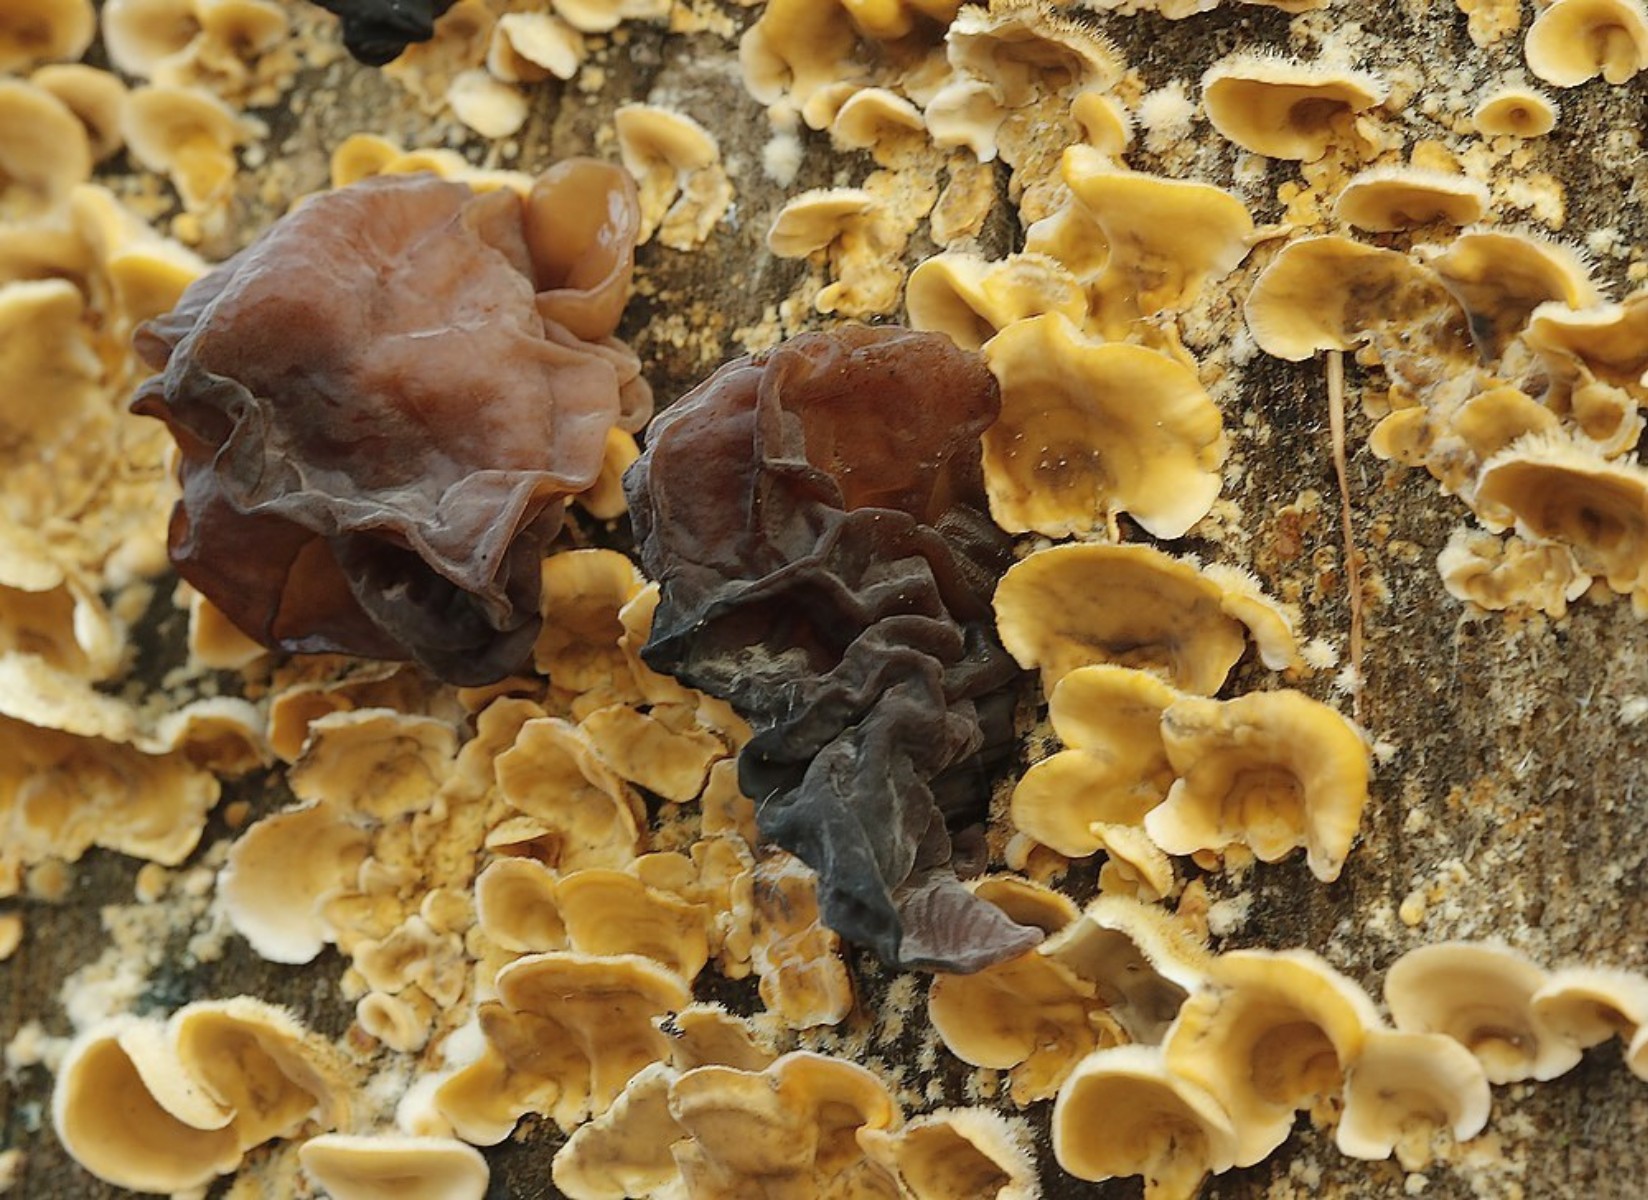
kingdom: Fungi
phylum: Basidiomycota
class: Tremellomycetes
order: Tremellales
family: Tremellaceae
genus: Phaeotremella
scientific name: Phaeotremella frondosa
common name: kæmpe-bævresvamp
